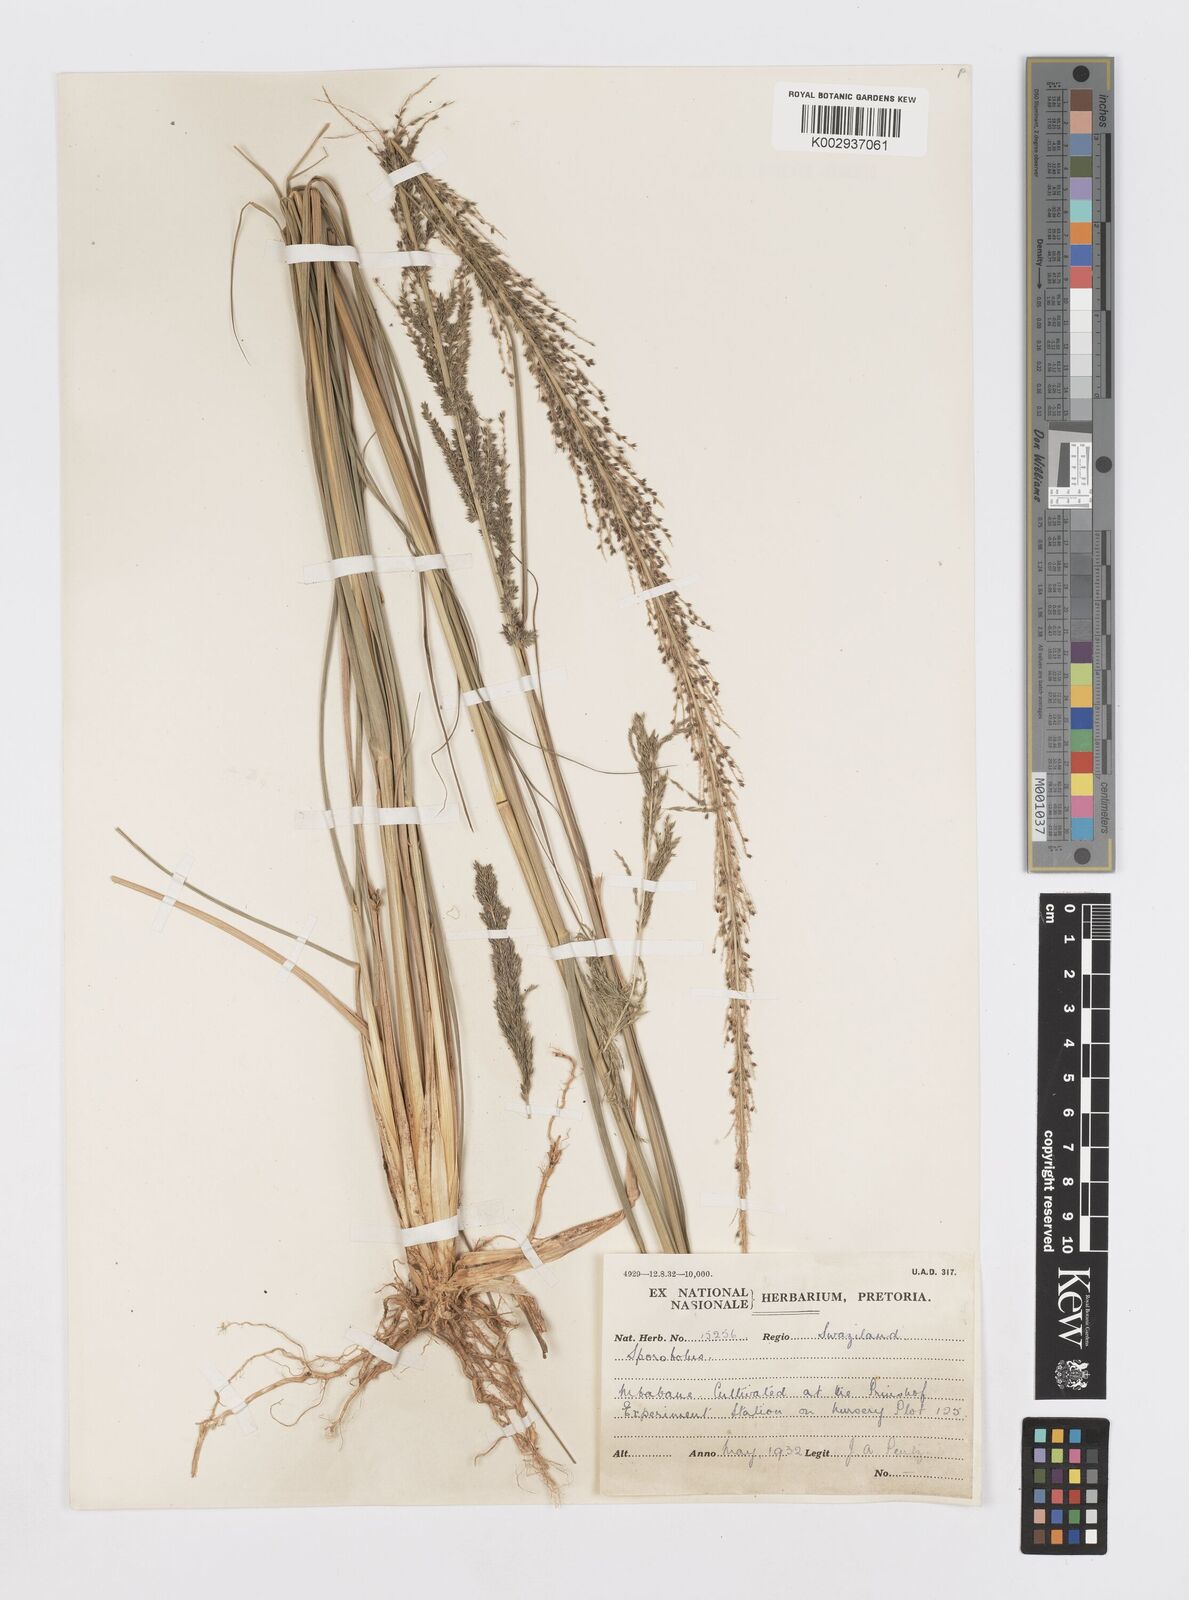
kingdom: Plantae
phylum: Tracheophyta
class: Liliopsida
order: Poales
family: Poaceae
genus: Sporobolus
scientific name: Sporobolus
